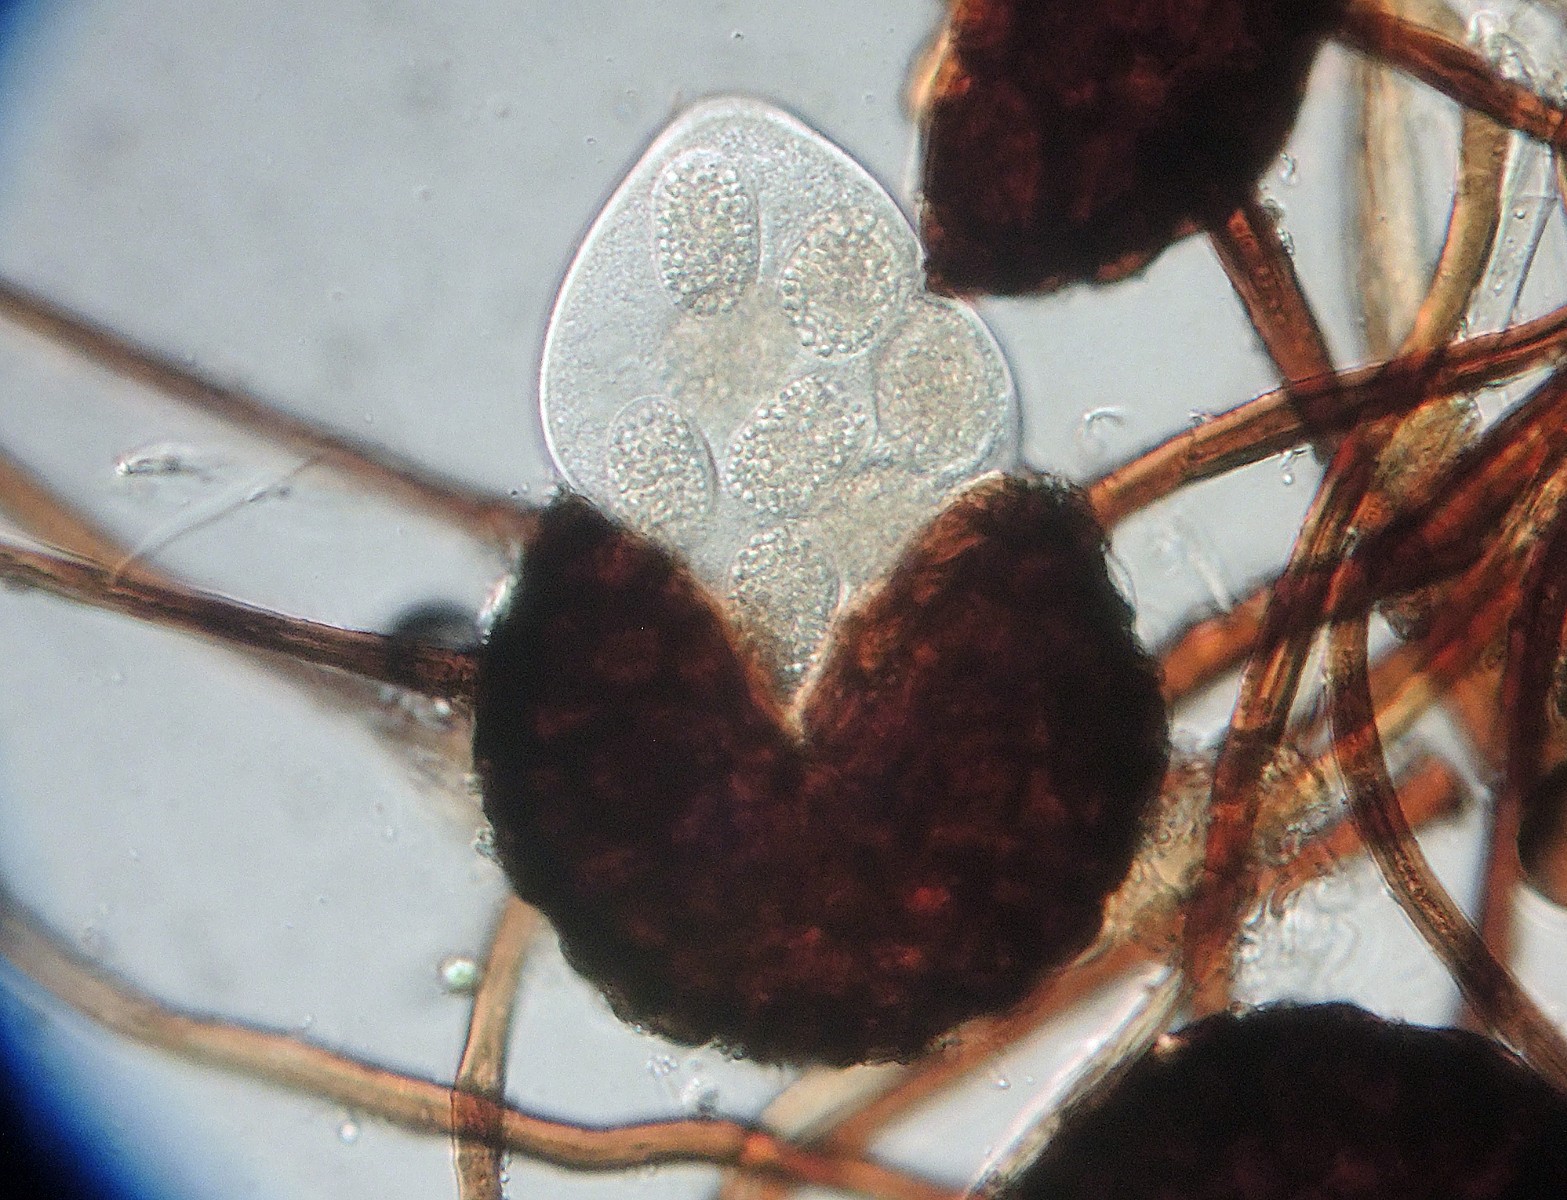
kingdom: Fungi
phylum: Ascomycota
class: Leotiomycetes
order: Helotiales
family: Erysiphaceae
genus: Podosphaera
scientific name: Podosphaera major
